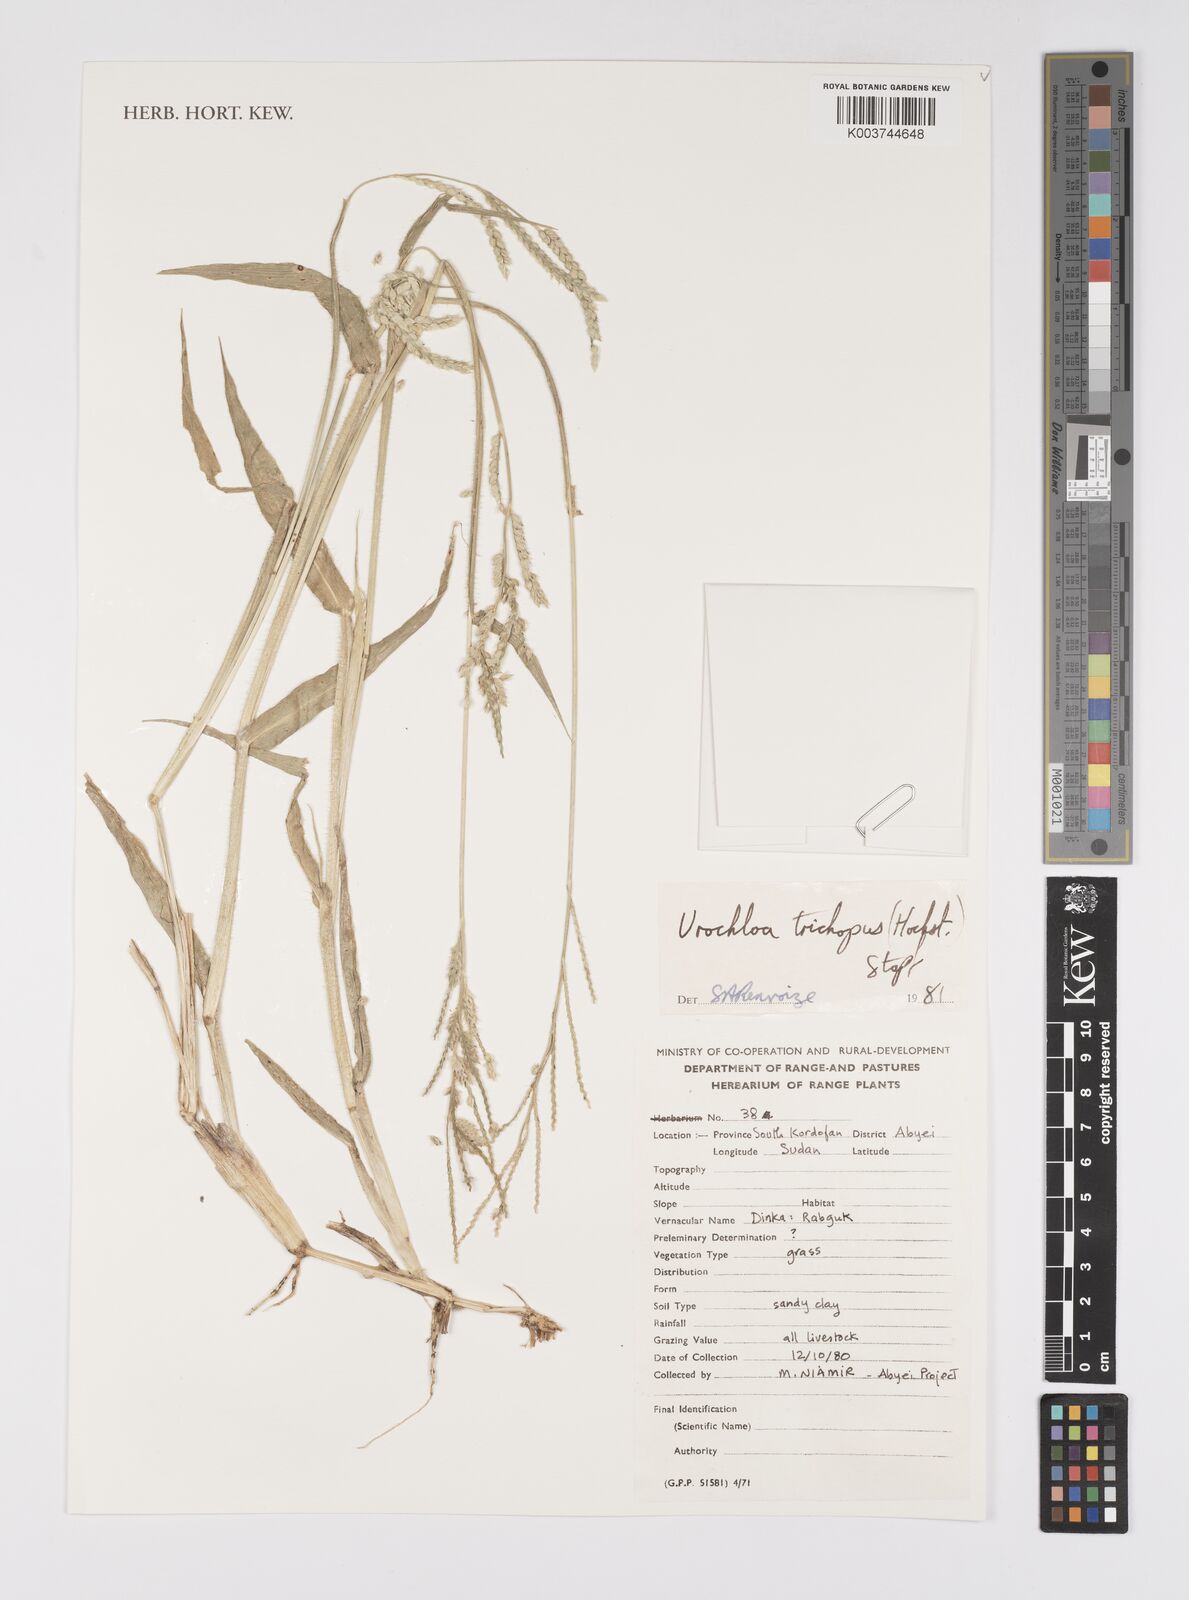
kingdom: Plantae
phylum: Tracheophyta
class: Liliopsida
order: Poales
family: Poaceae
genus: Urochloa
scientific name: Urochloa trichopus
